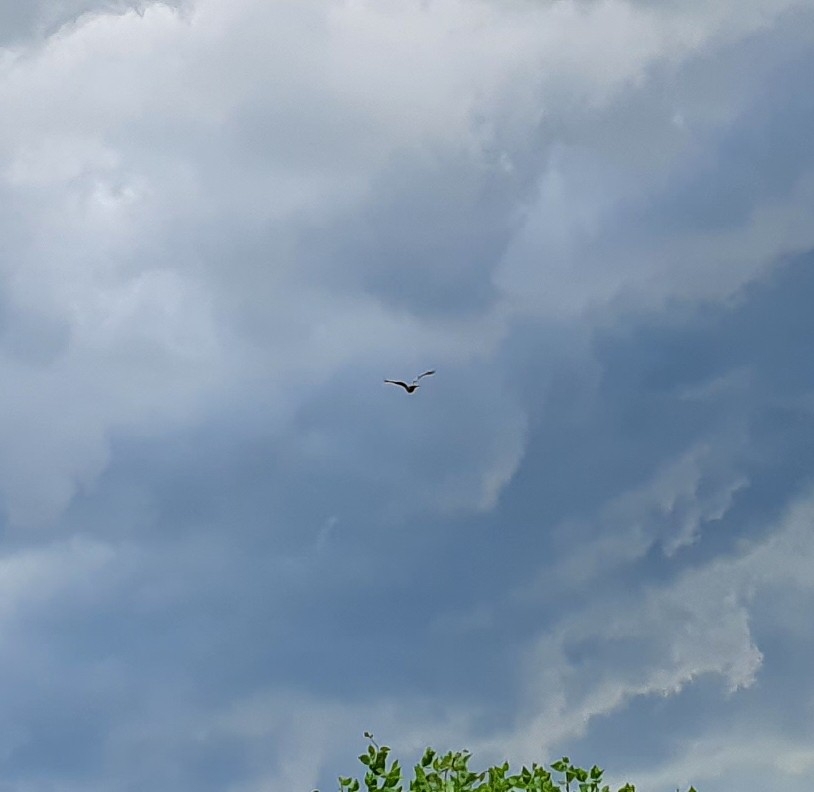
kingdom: Animalia
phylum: Chordata
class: Aves
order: Accipitriformes
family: Accipitridae
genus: Milvus
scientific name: Milvus milvus
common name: Rød glente
